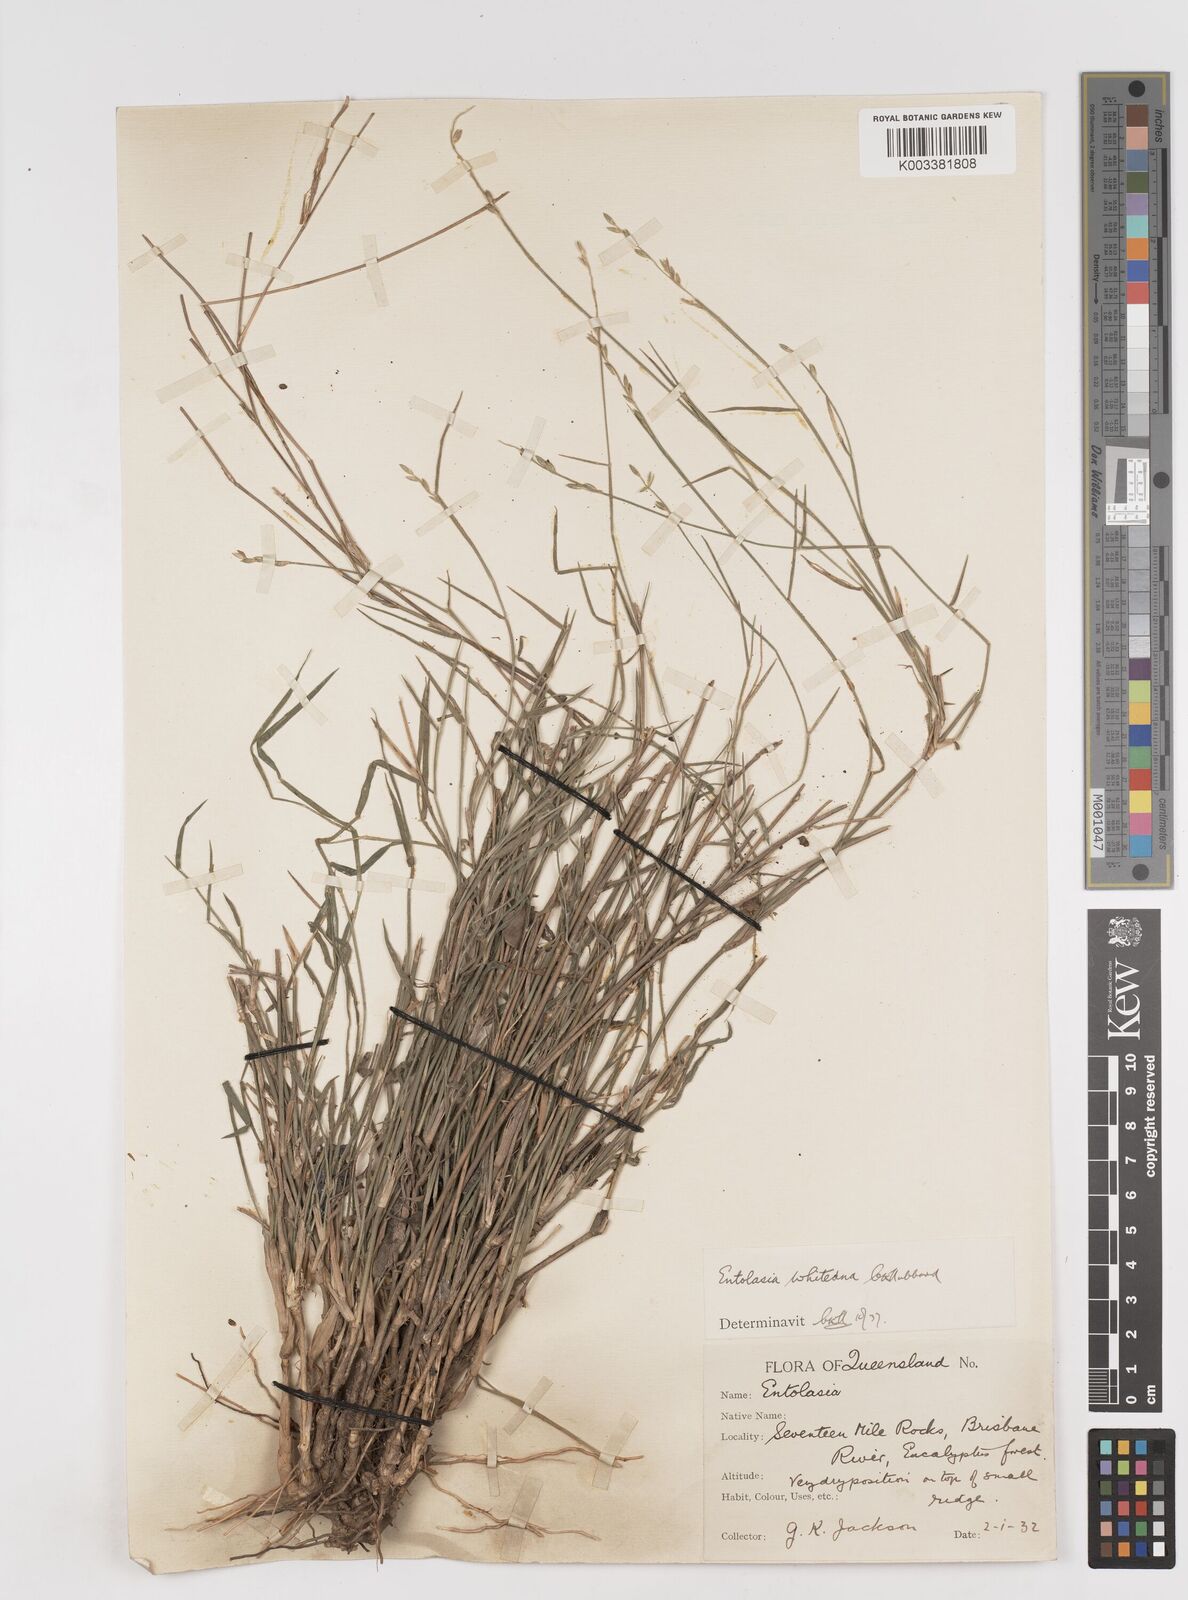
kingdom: Plantae
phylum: Tracheophyta
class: Liliopsida
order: Poales
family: Poaceae
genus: Entolasia
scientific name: Entolasia whiteana
